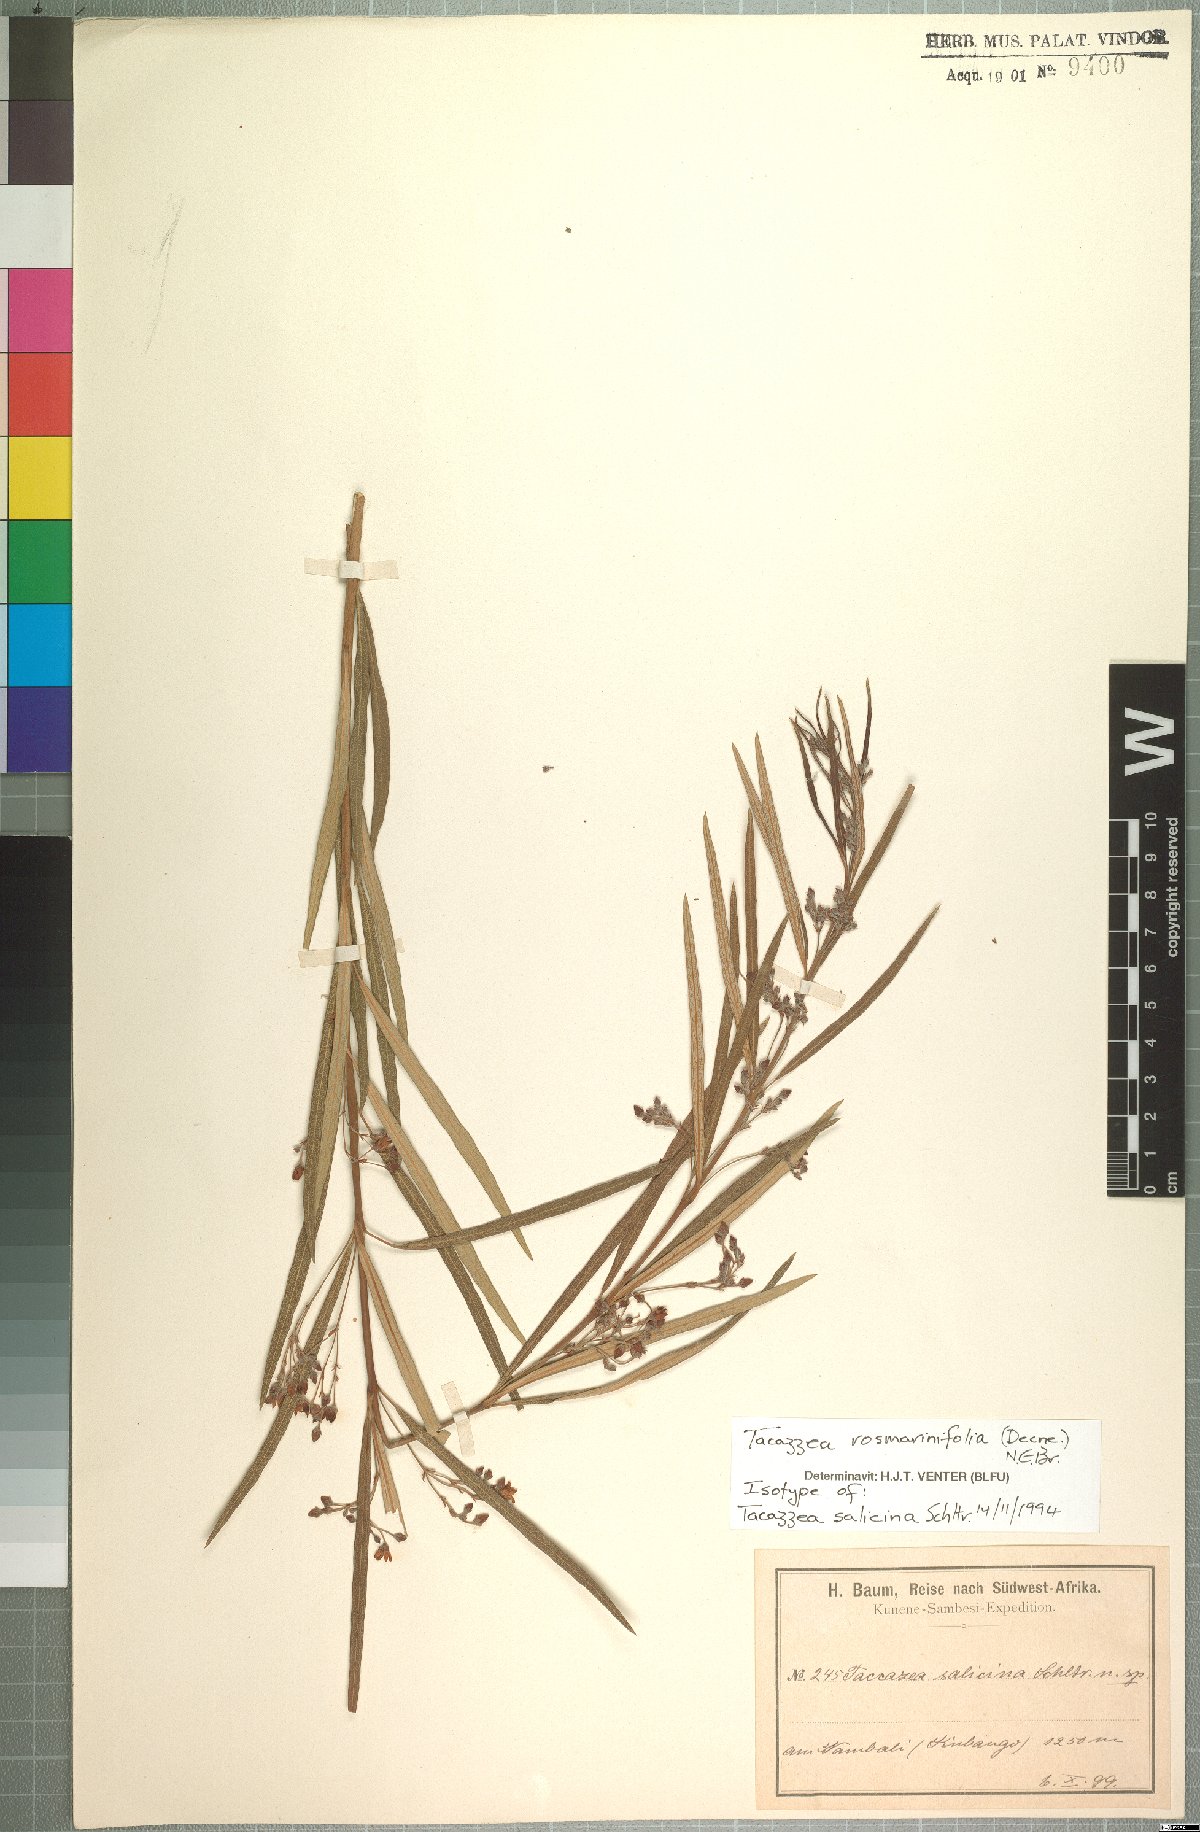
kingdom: Plantae
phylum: Tracheophyta
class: Magnoliopsida
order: Gentianales
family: Apocynaceae
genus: Tacazzea
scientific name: Tacazzea rosmarinifolia
